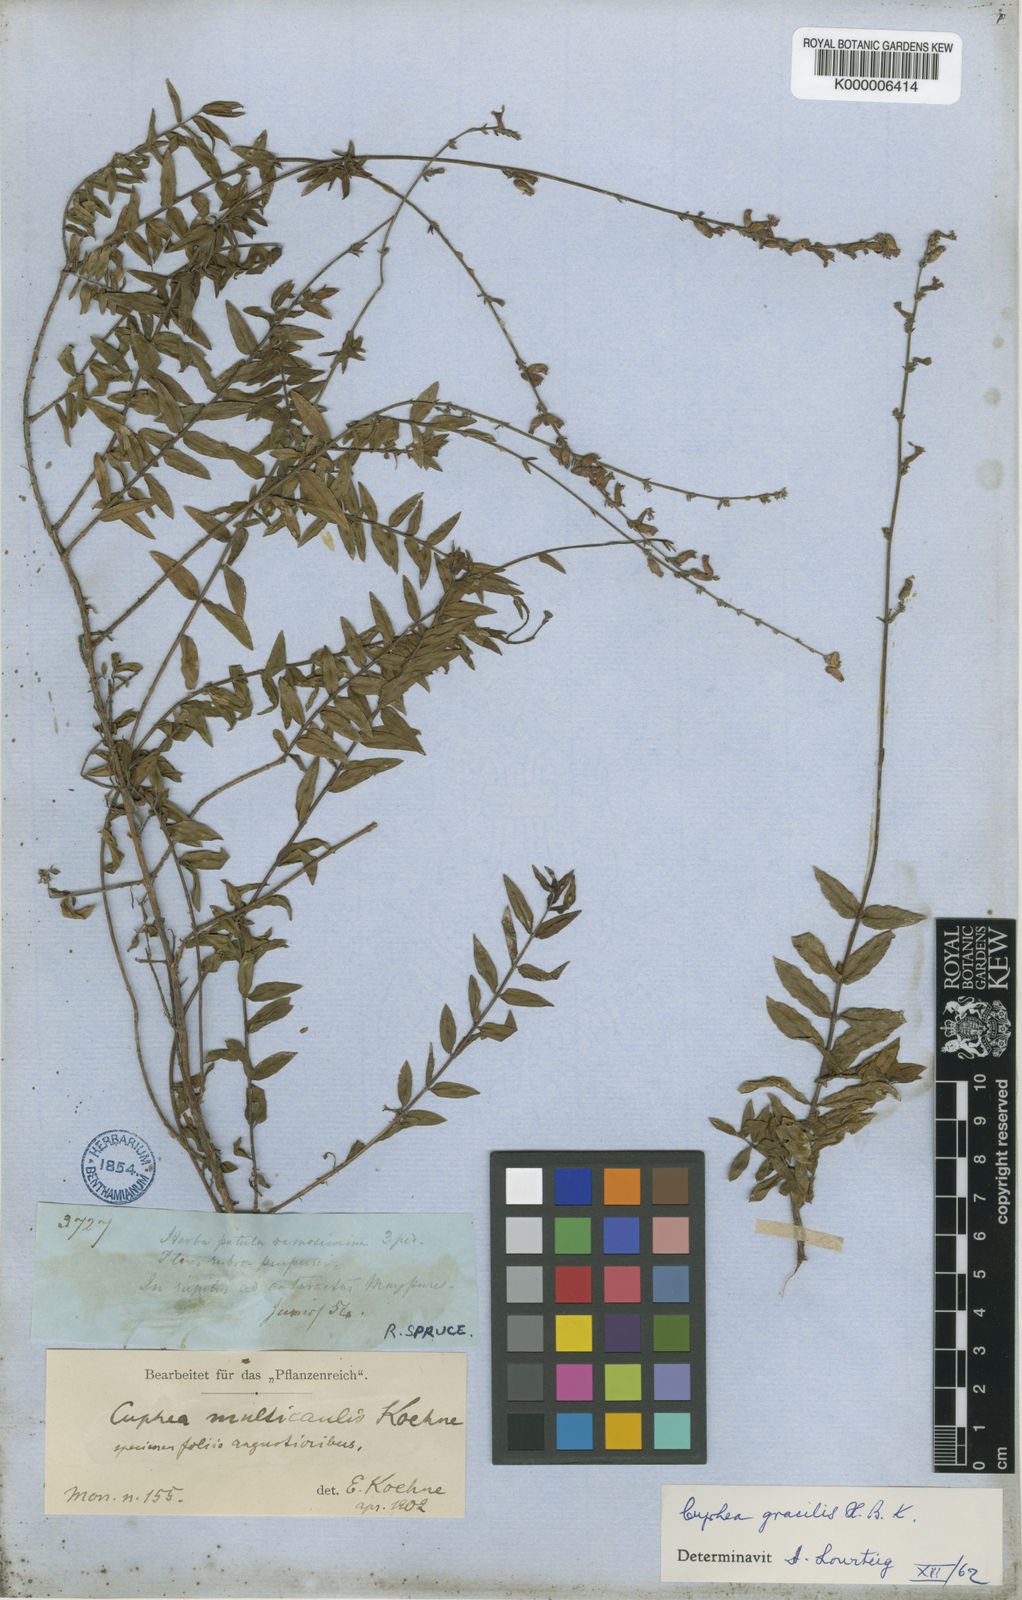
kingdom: Plantae
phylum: Tracheophyta
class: Magnoliopsida
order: Myrtales
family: Lythraceae
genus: Cuphea
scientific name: Cuphea
